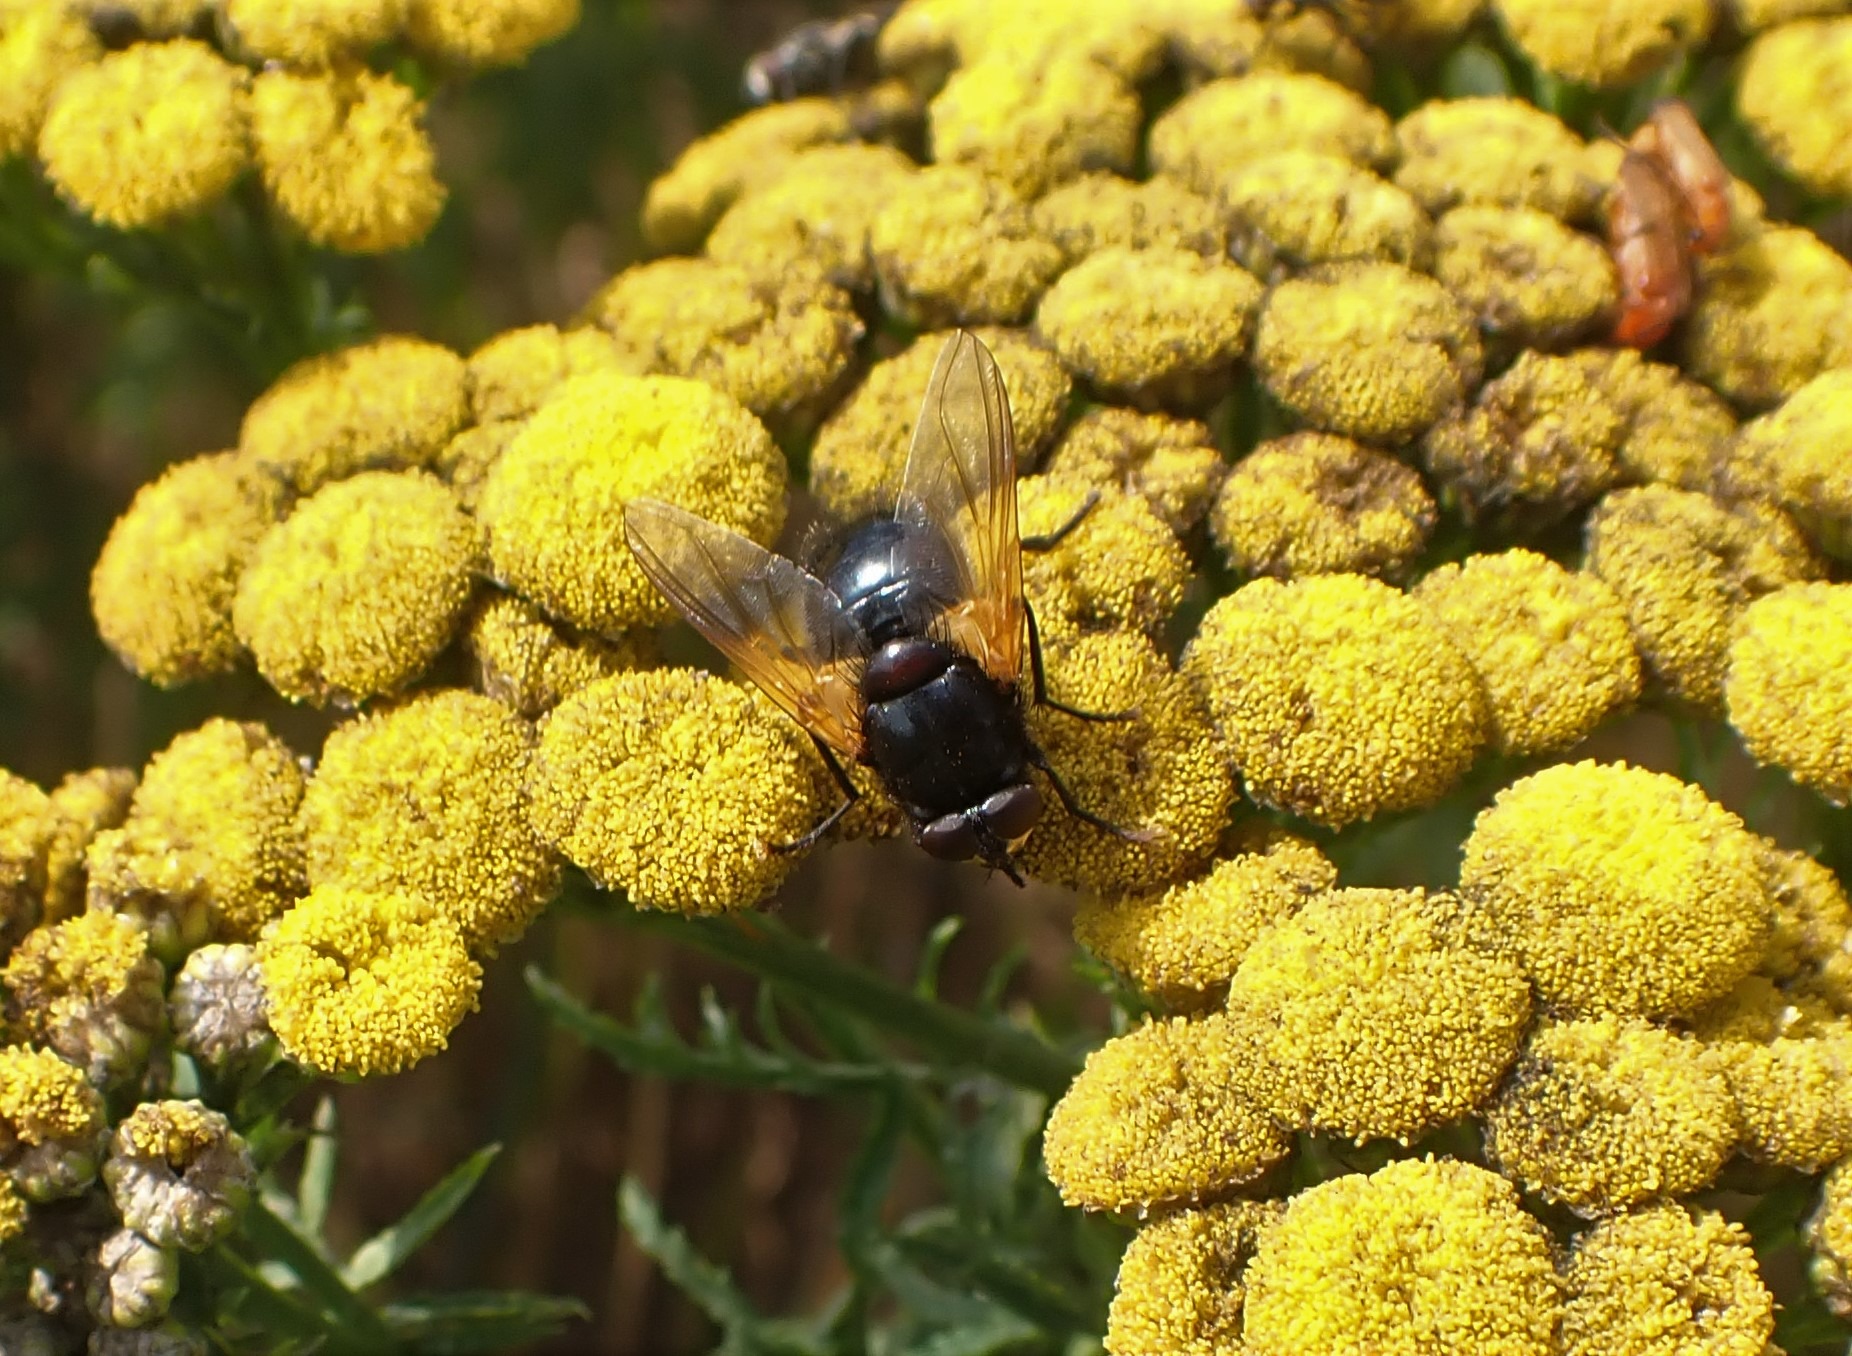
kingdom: Animalia
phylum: Arthropoda
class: Insecta
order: Diptera
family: Muscidae
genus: Mesembrina
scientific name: Mesembrina meridiana
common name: Gulvinget flue
